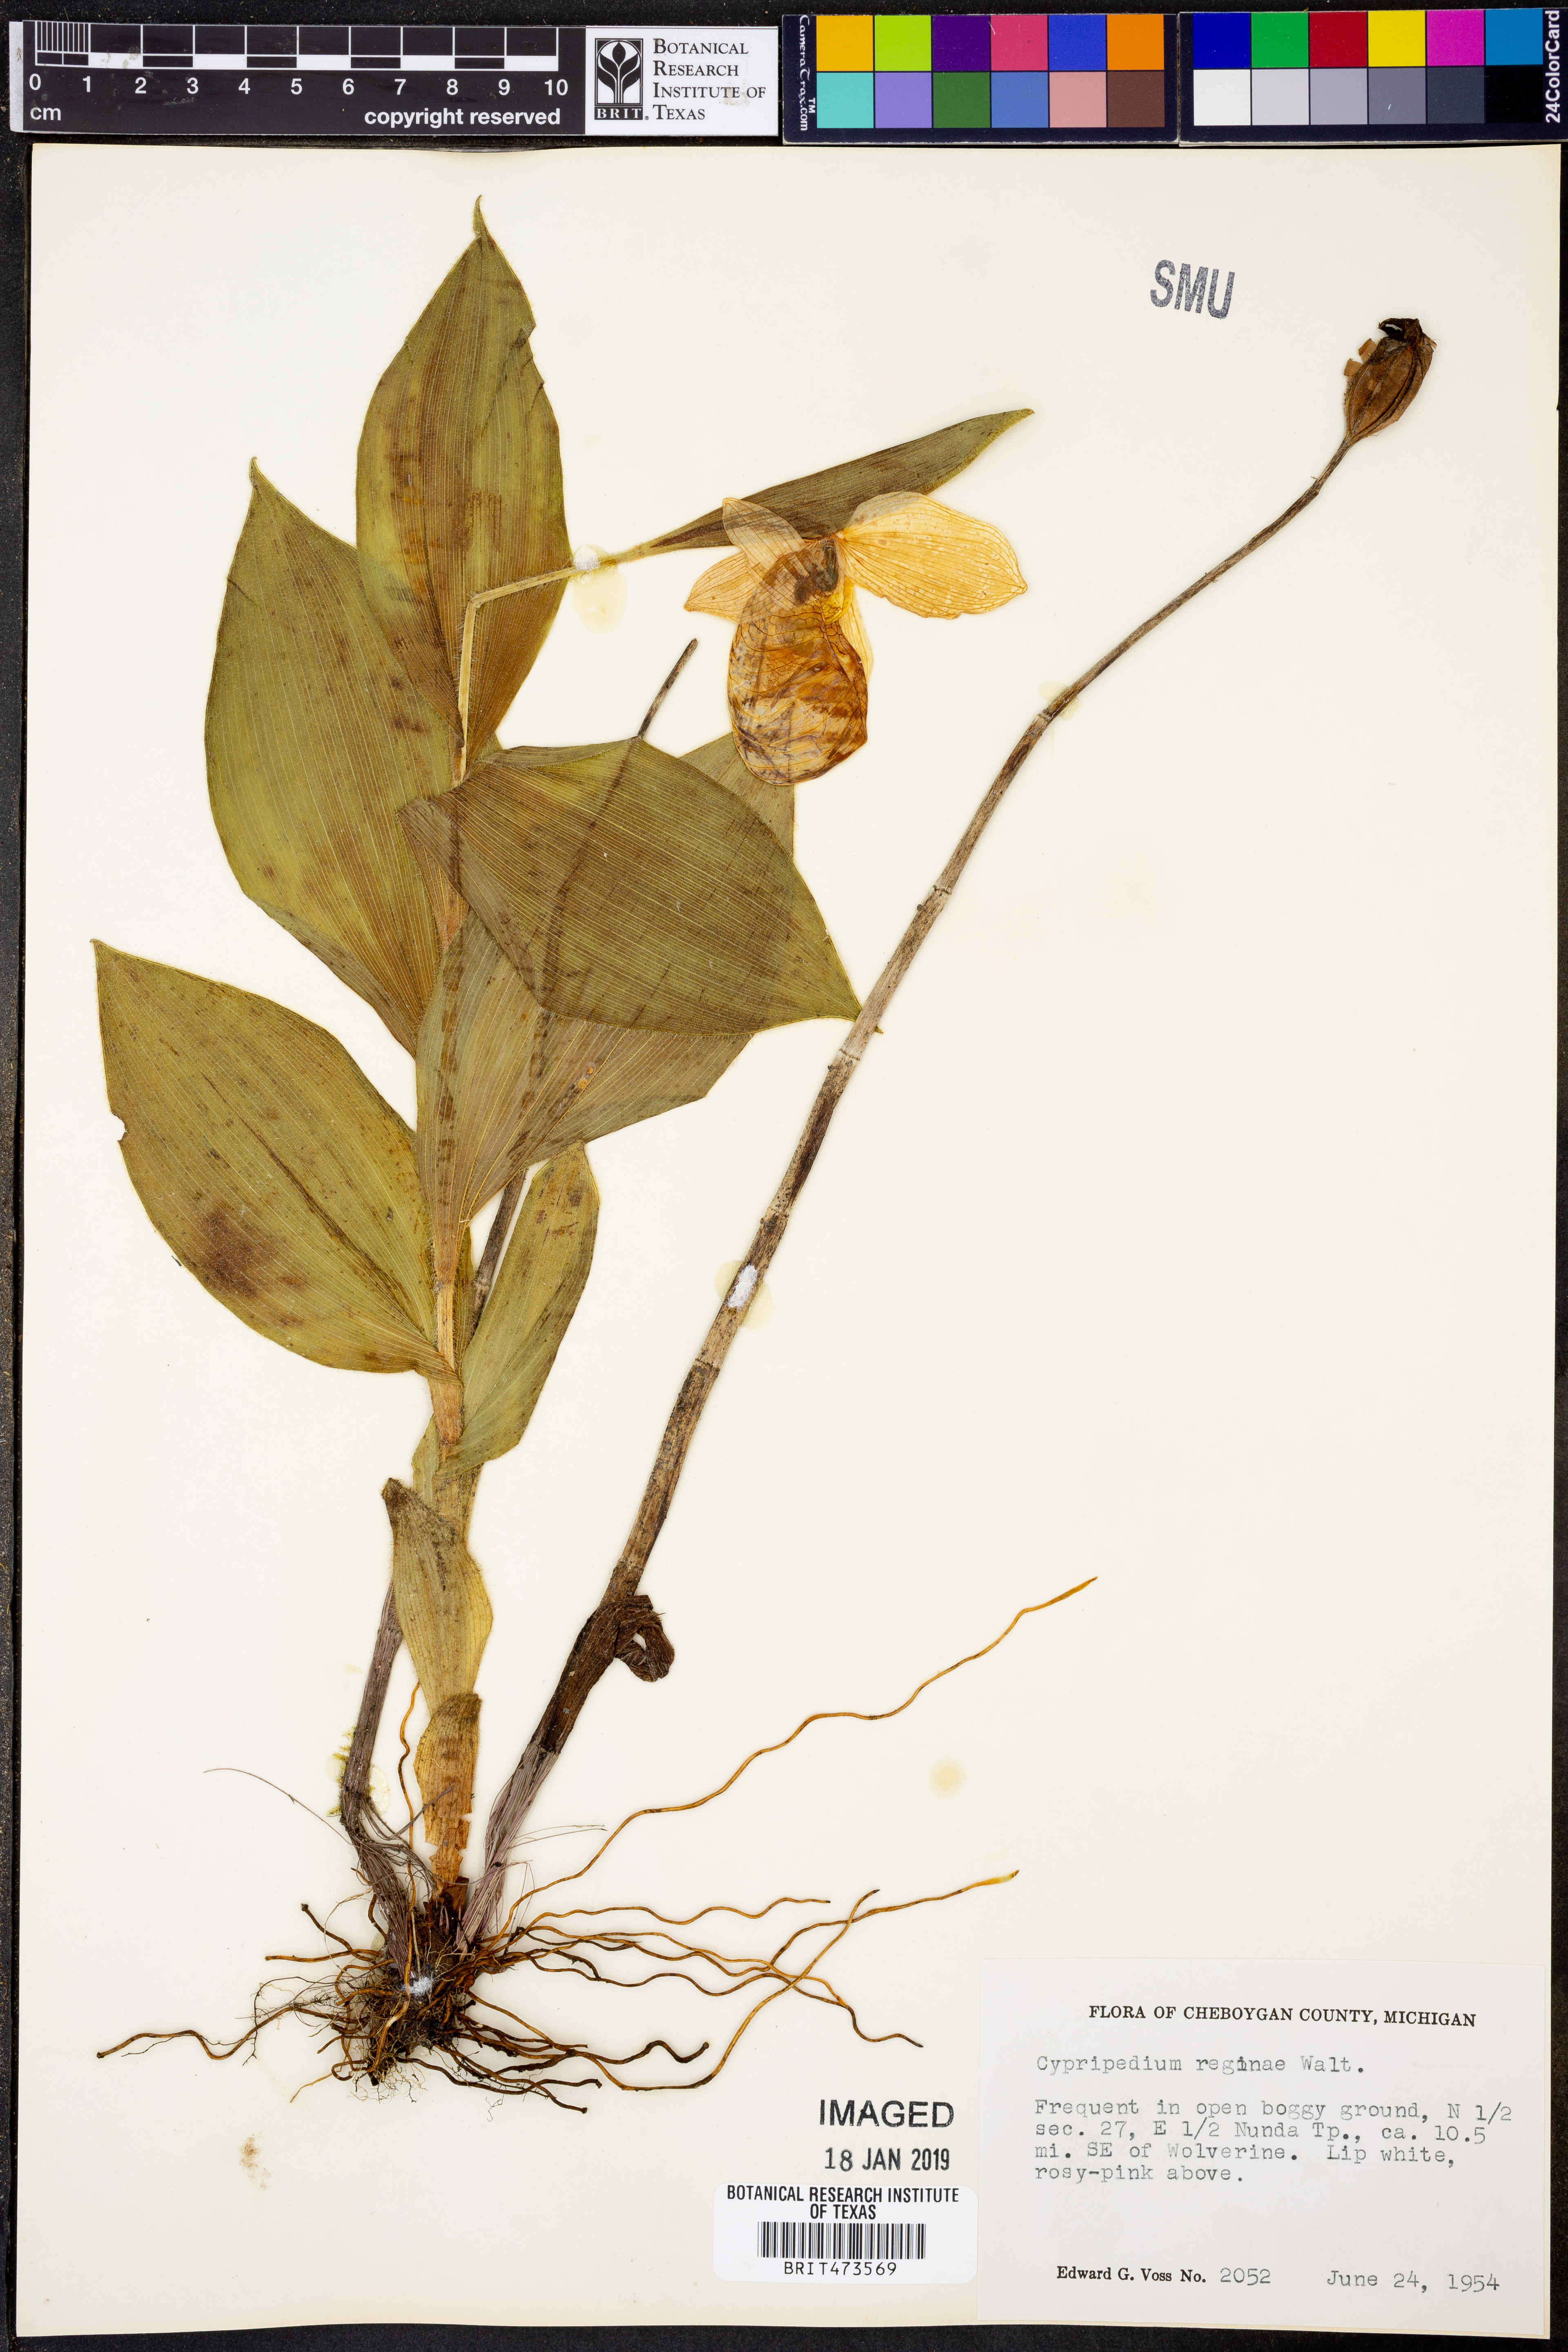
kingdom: Plantae
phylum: Tracheophyta
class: Liliopsida
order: Asparagales
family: Orchidaceae
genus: Cypripedium
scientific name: Cypripedium reginae
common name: Queen lady's-slipper
